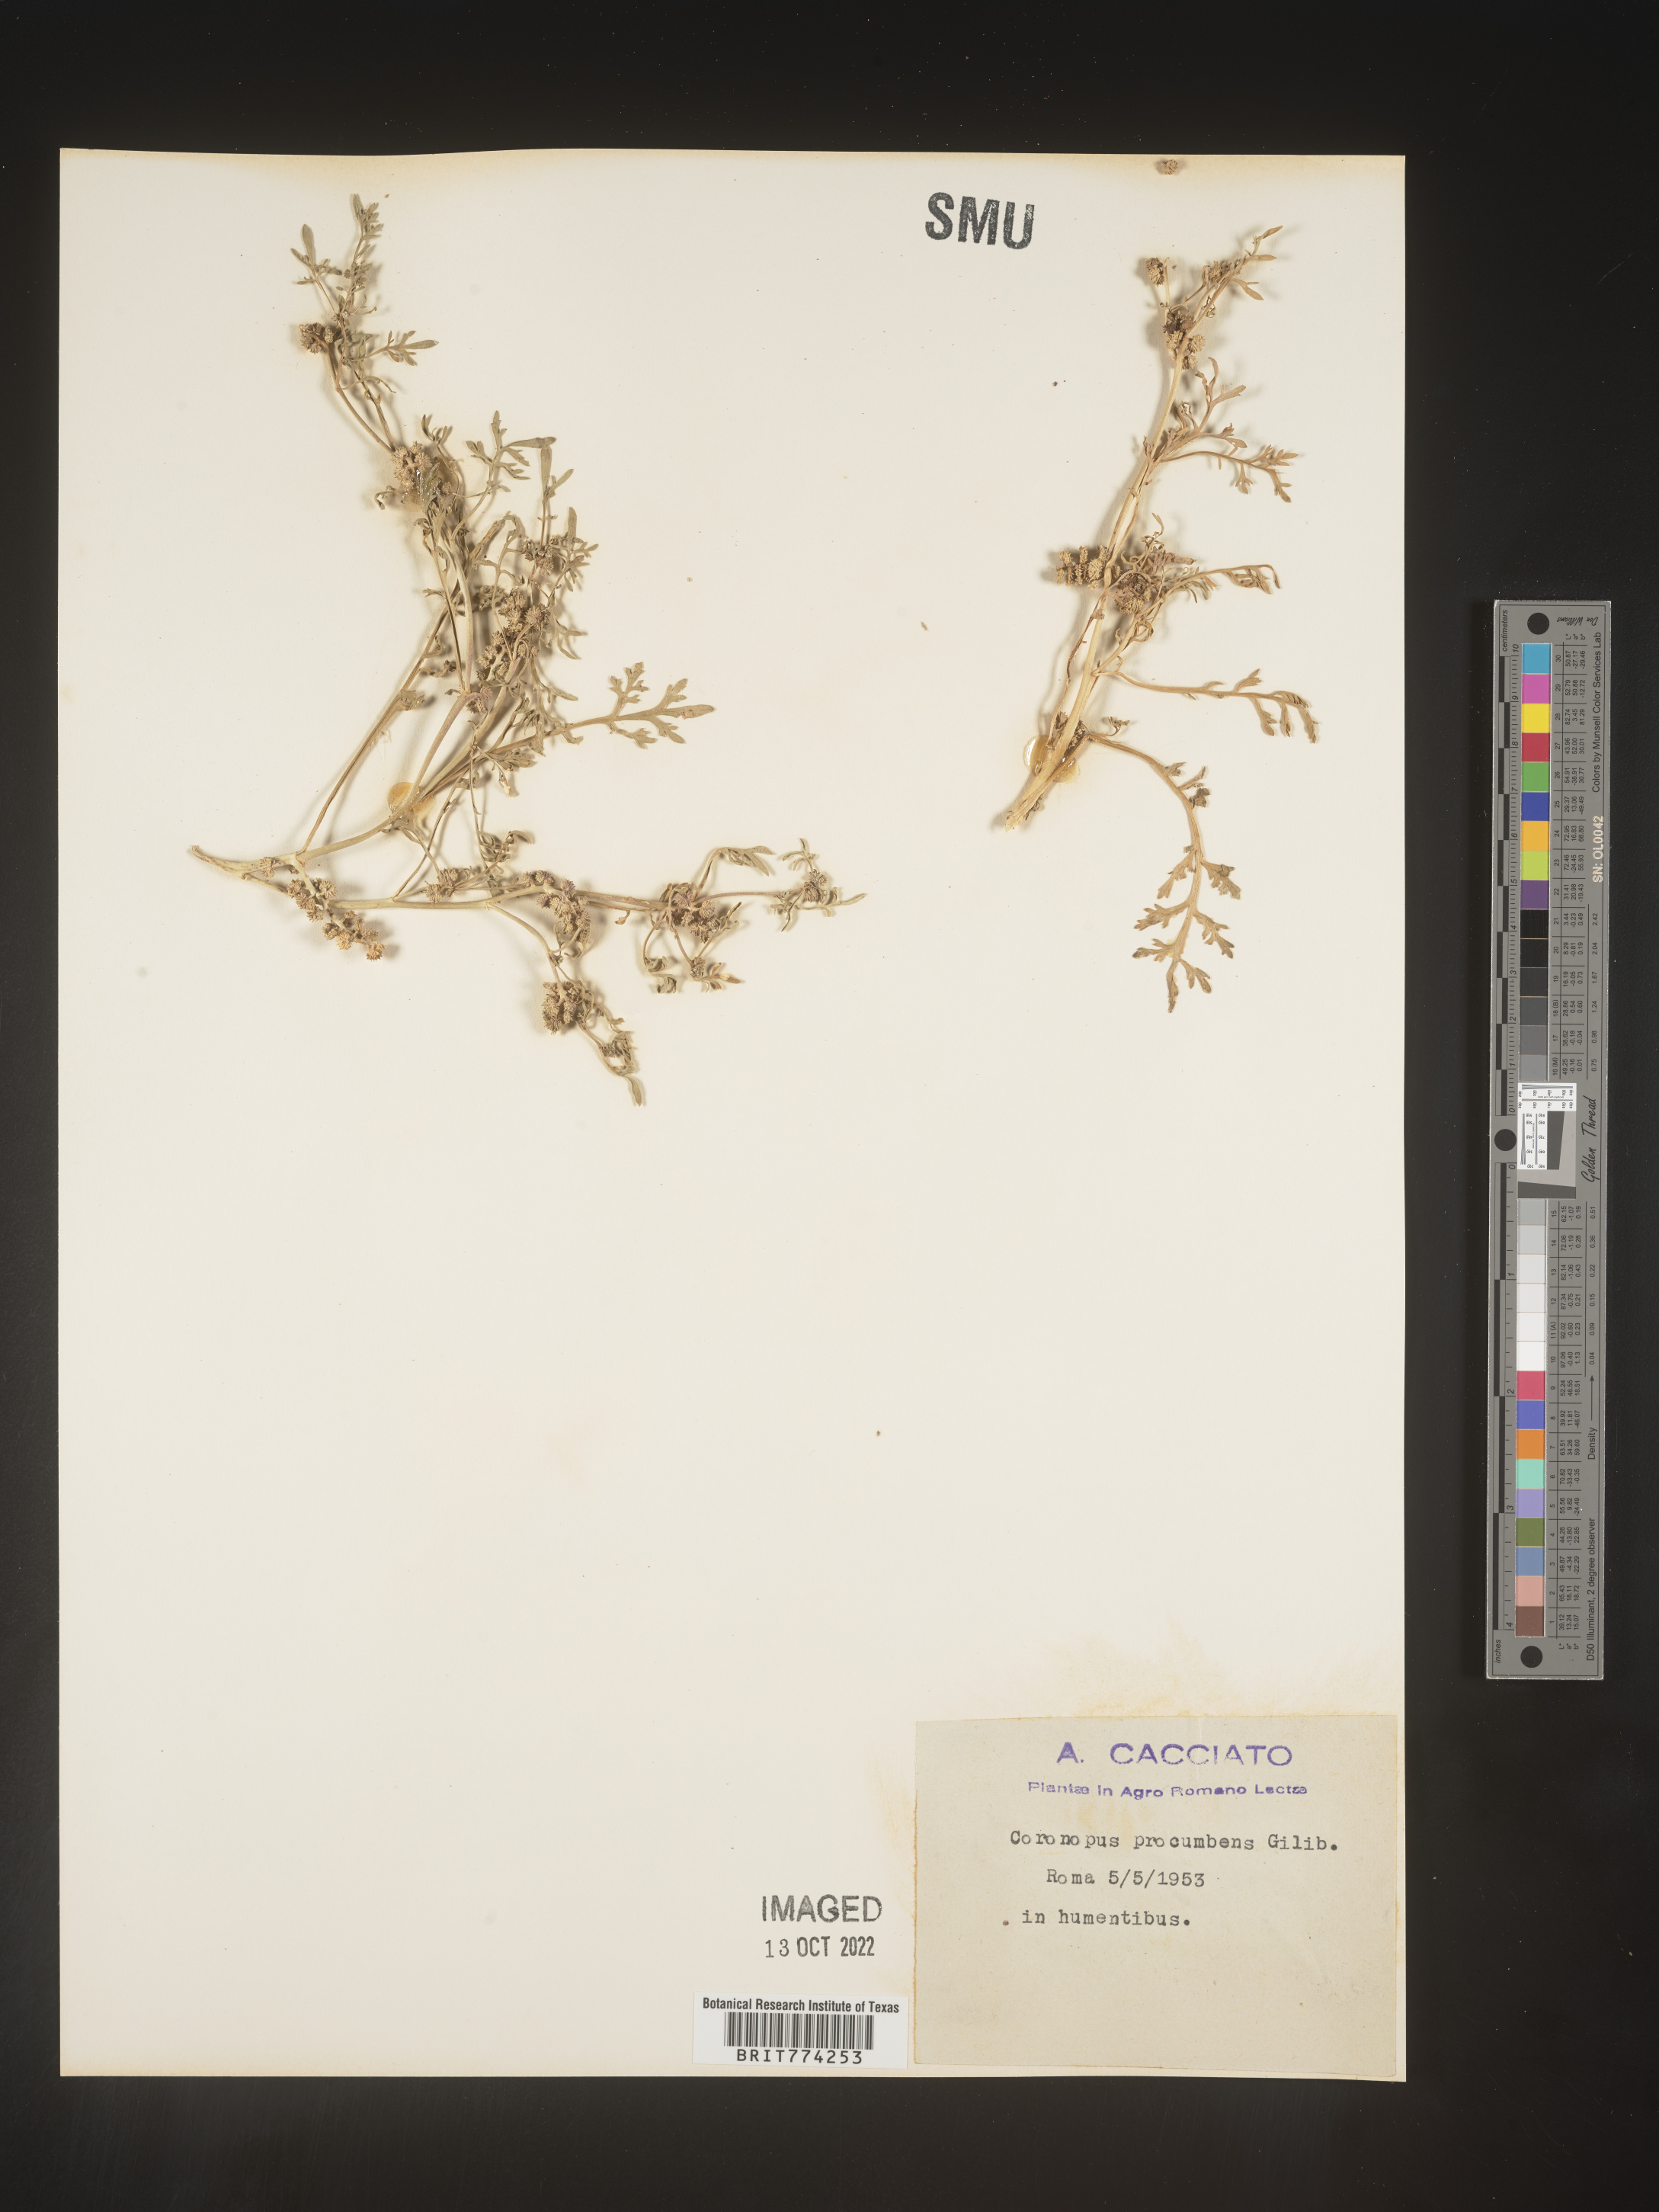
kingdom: Plantae
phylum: Tracheophyta
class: Magnoliopsida
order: Brassicales
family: Brassicaceae
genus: Coronopus
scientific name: Coronopus
